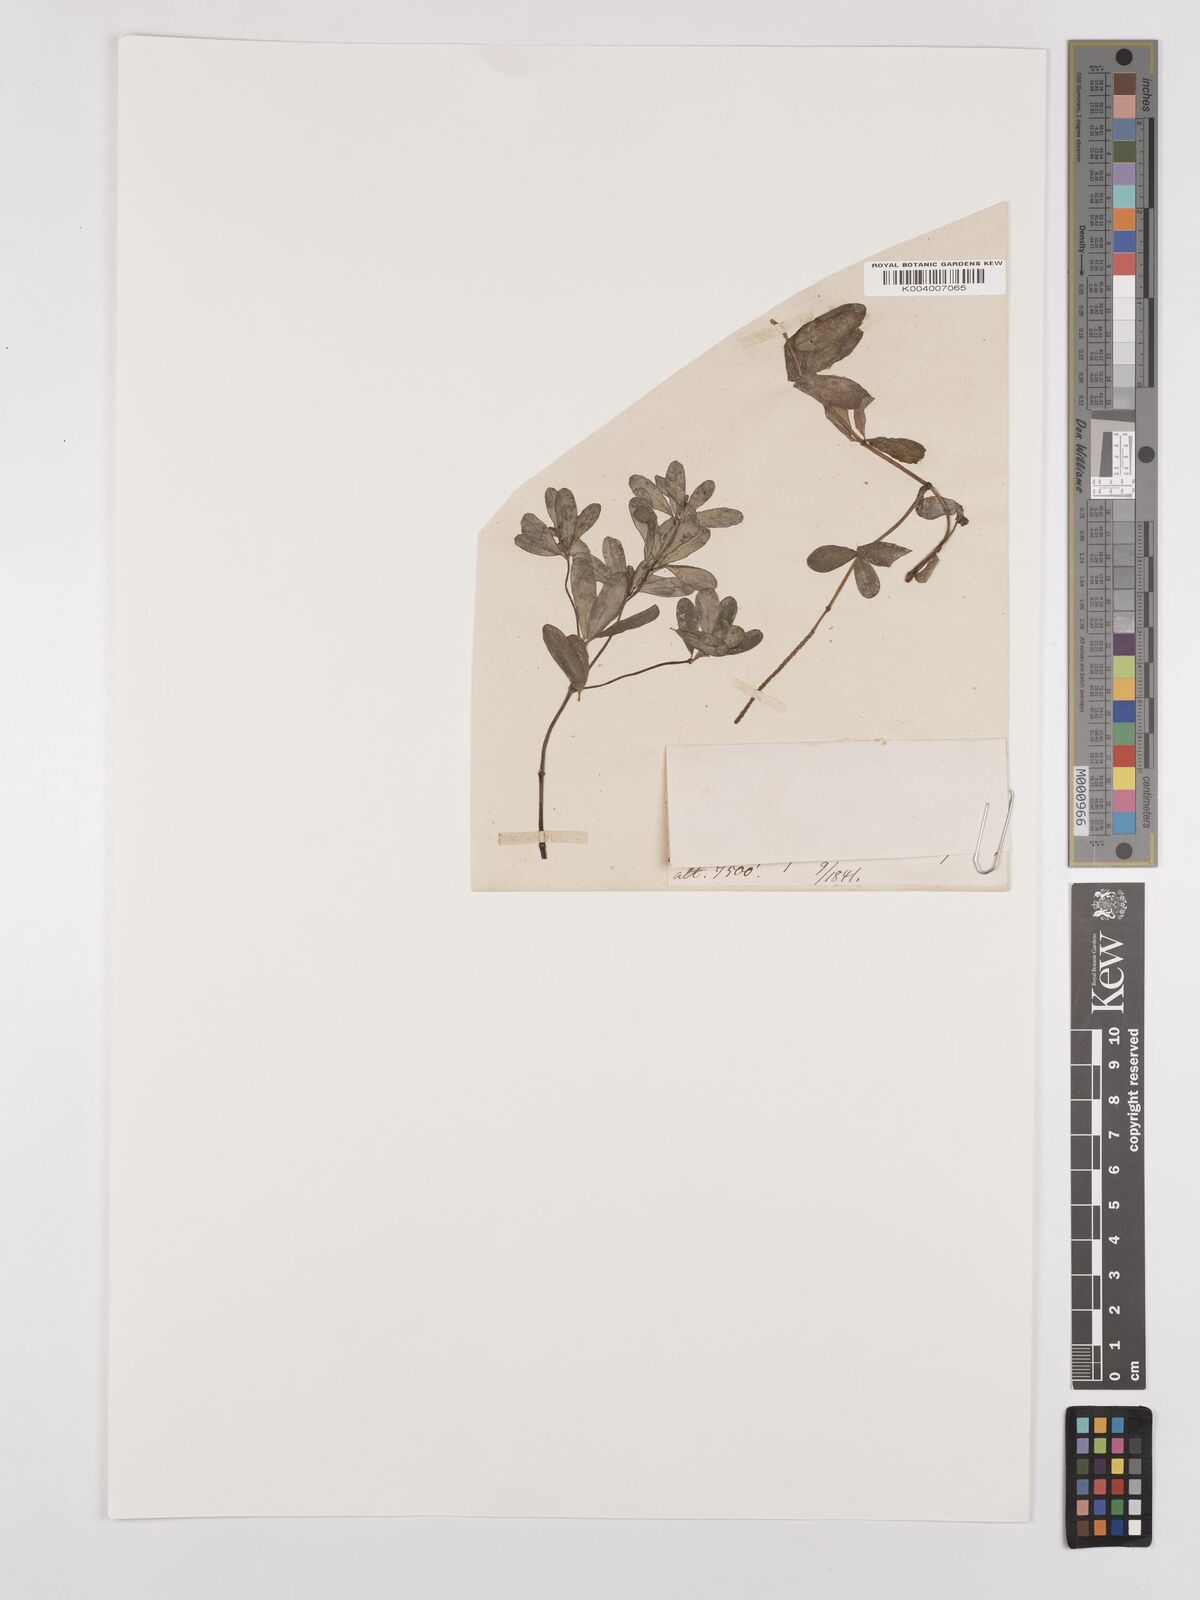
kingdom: Plantae
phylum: Tracheophyta
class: Magnoliopsida
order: Piperales
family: Piperaceae
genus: Peperomia
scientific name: Peperomia galioides
